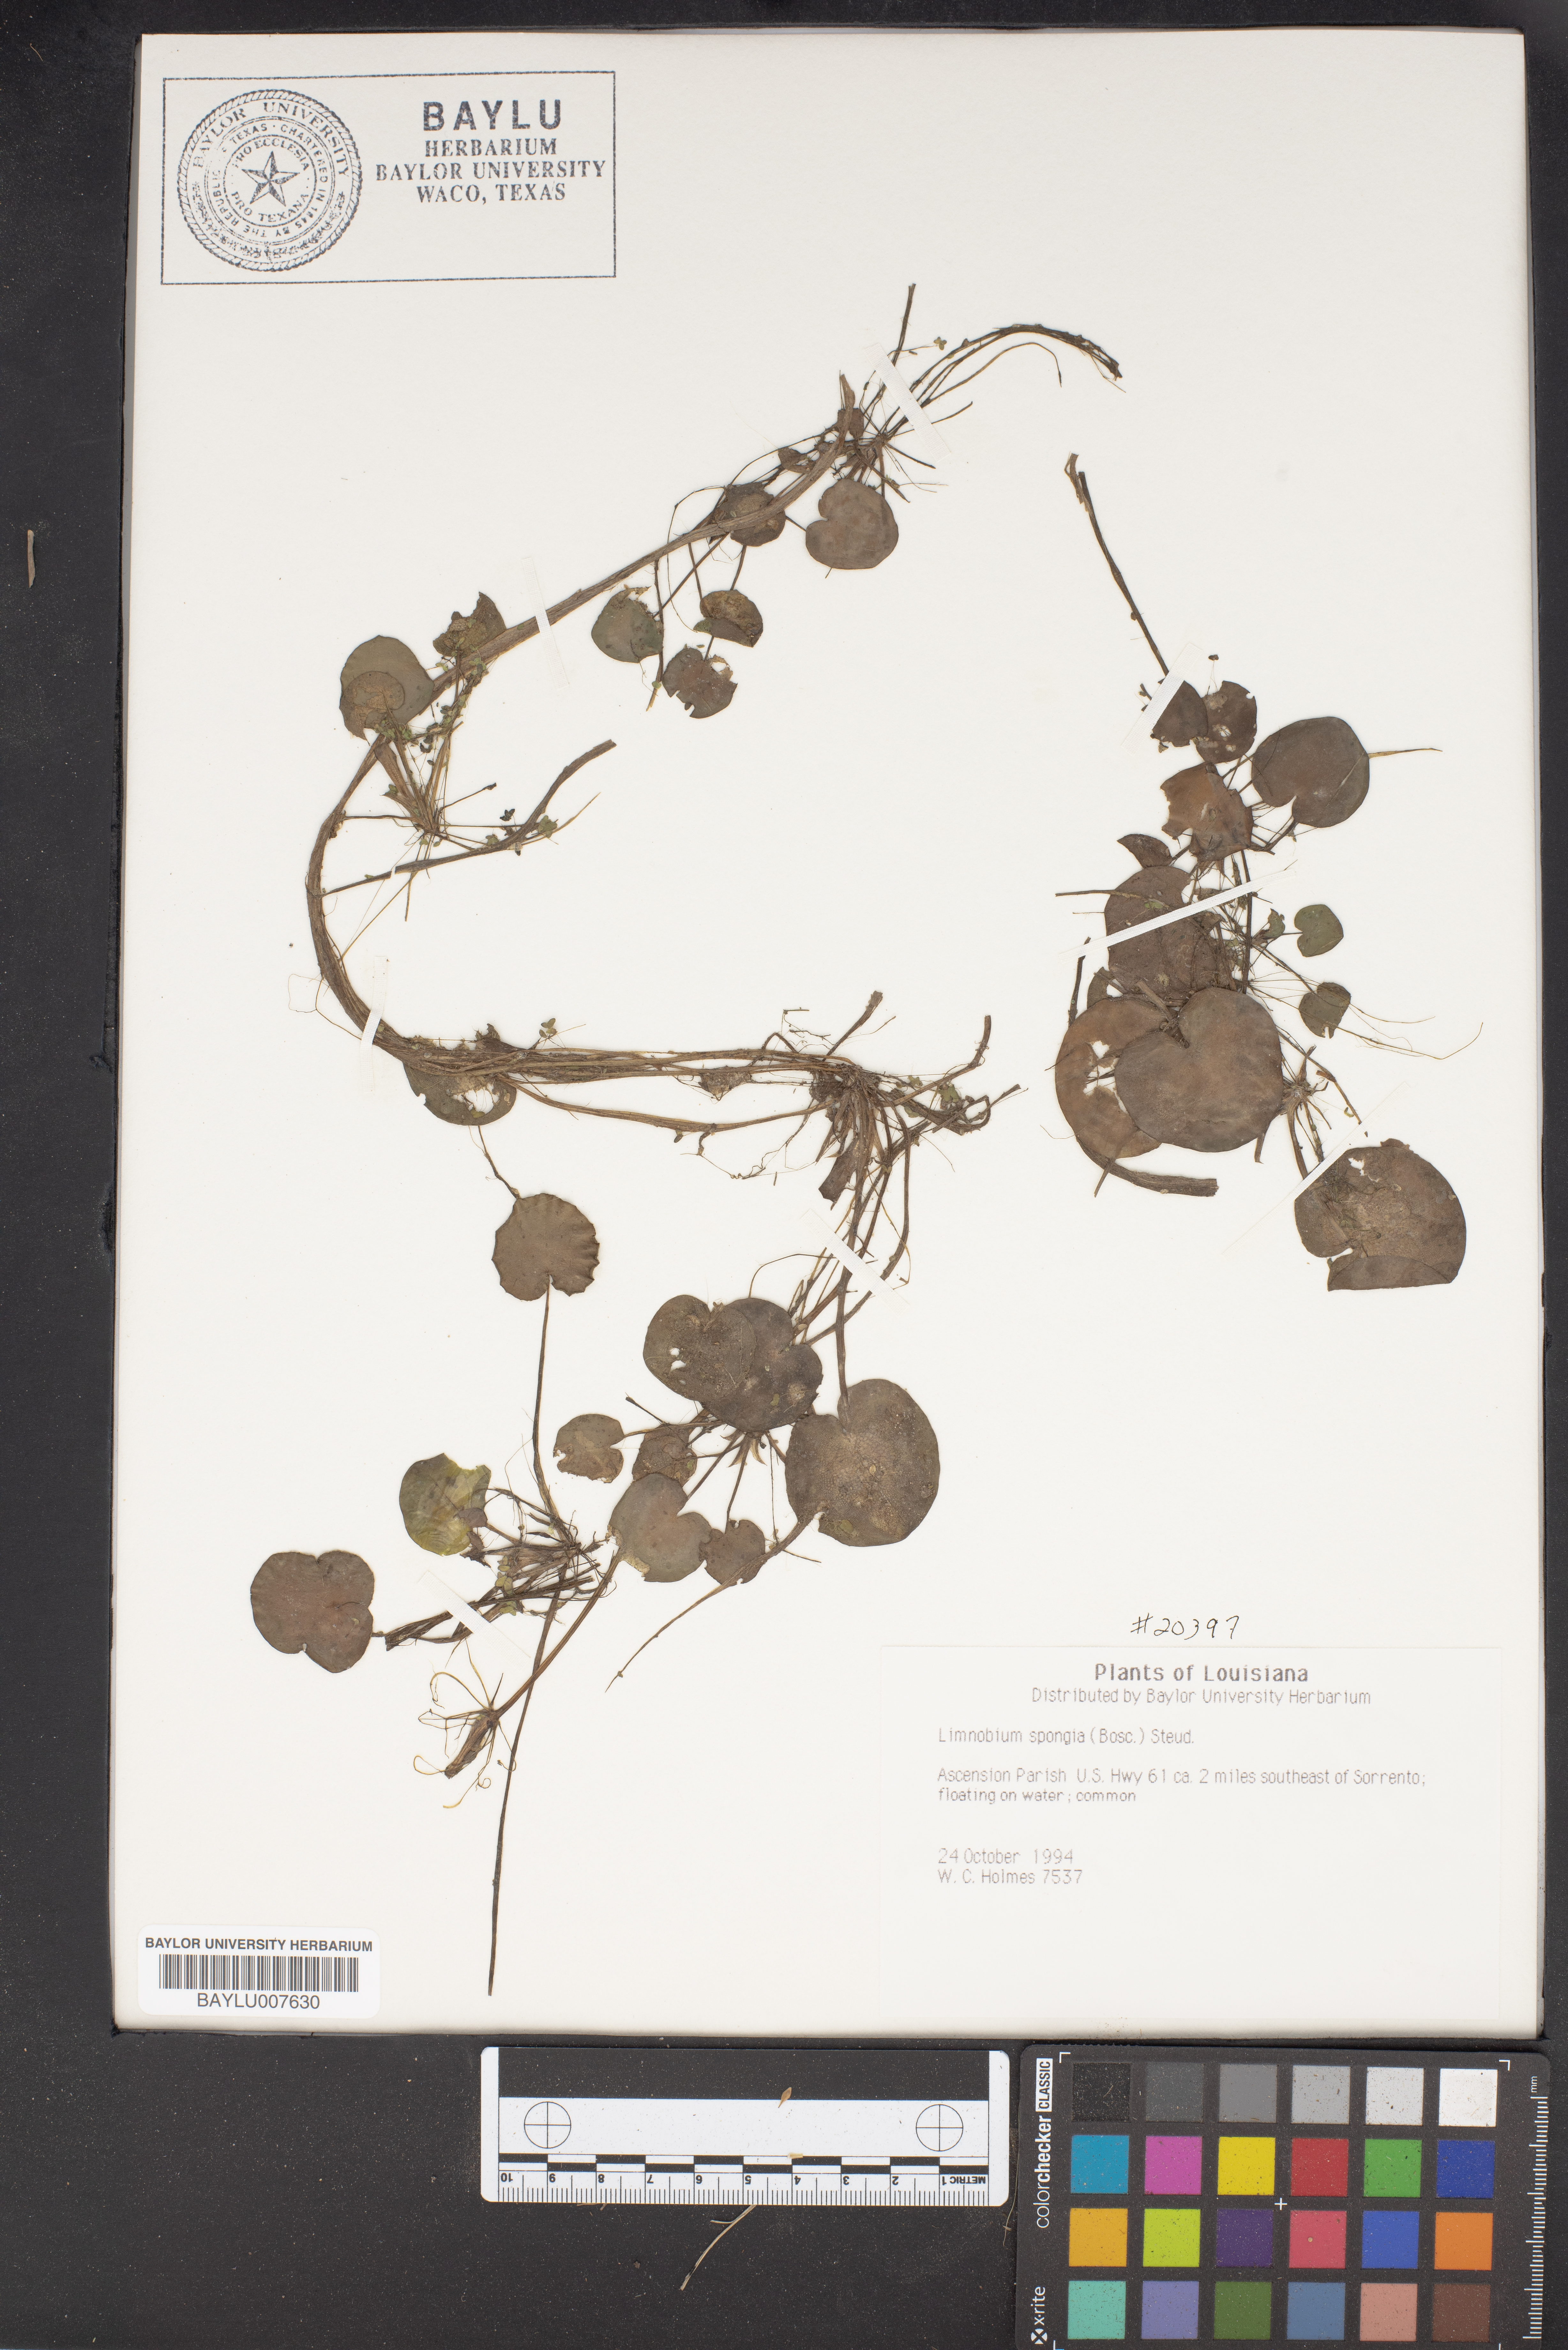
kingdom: Plantae
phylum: Tracheophyta
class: Liliopsida
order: Alismatales
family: Hydrocharitaceae
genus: Hydrocharis
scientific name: Hydrocharis spongia
